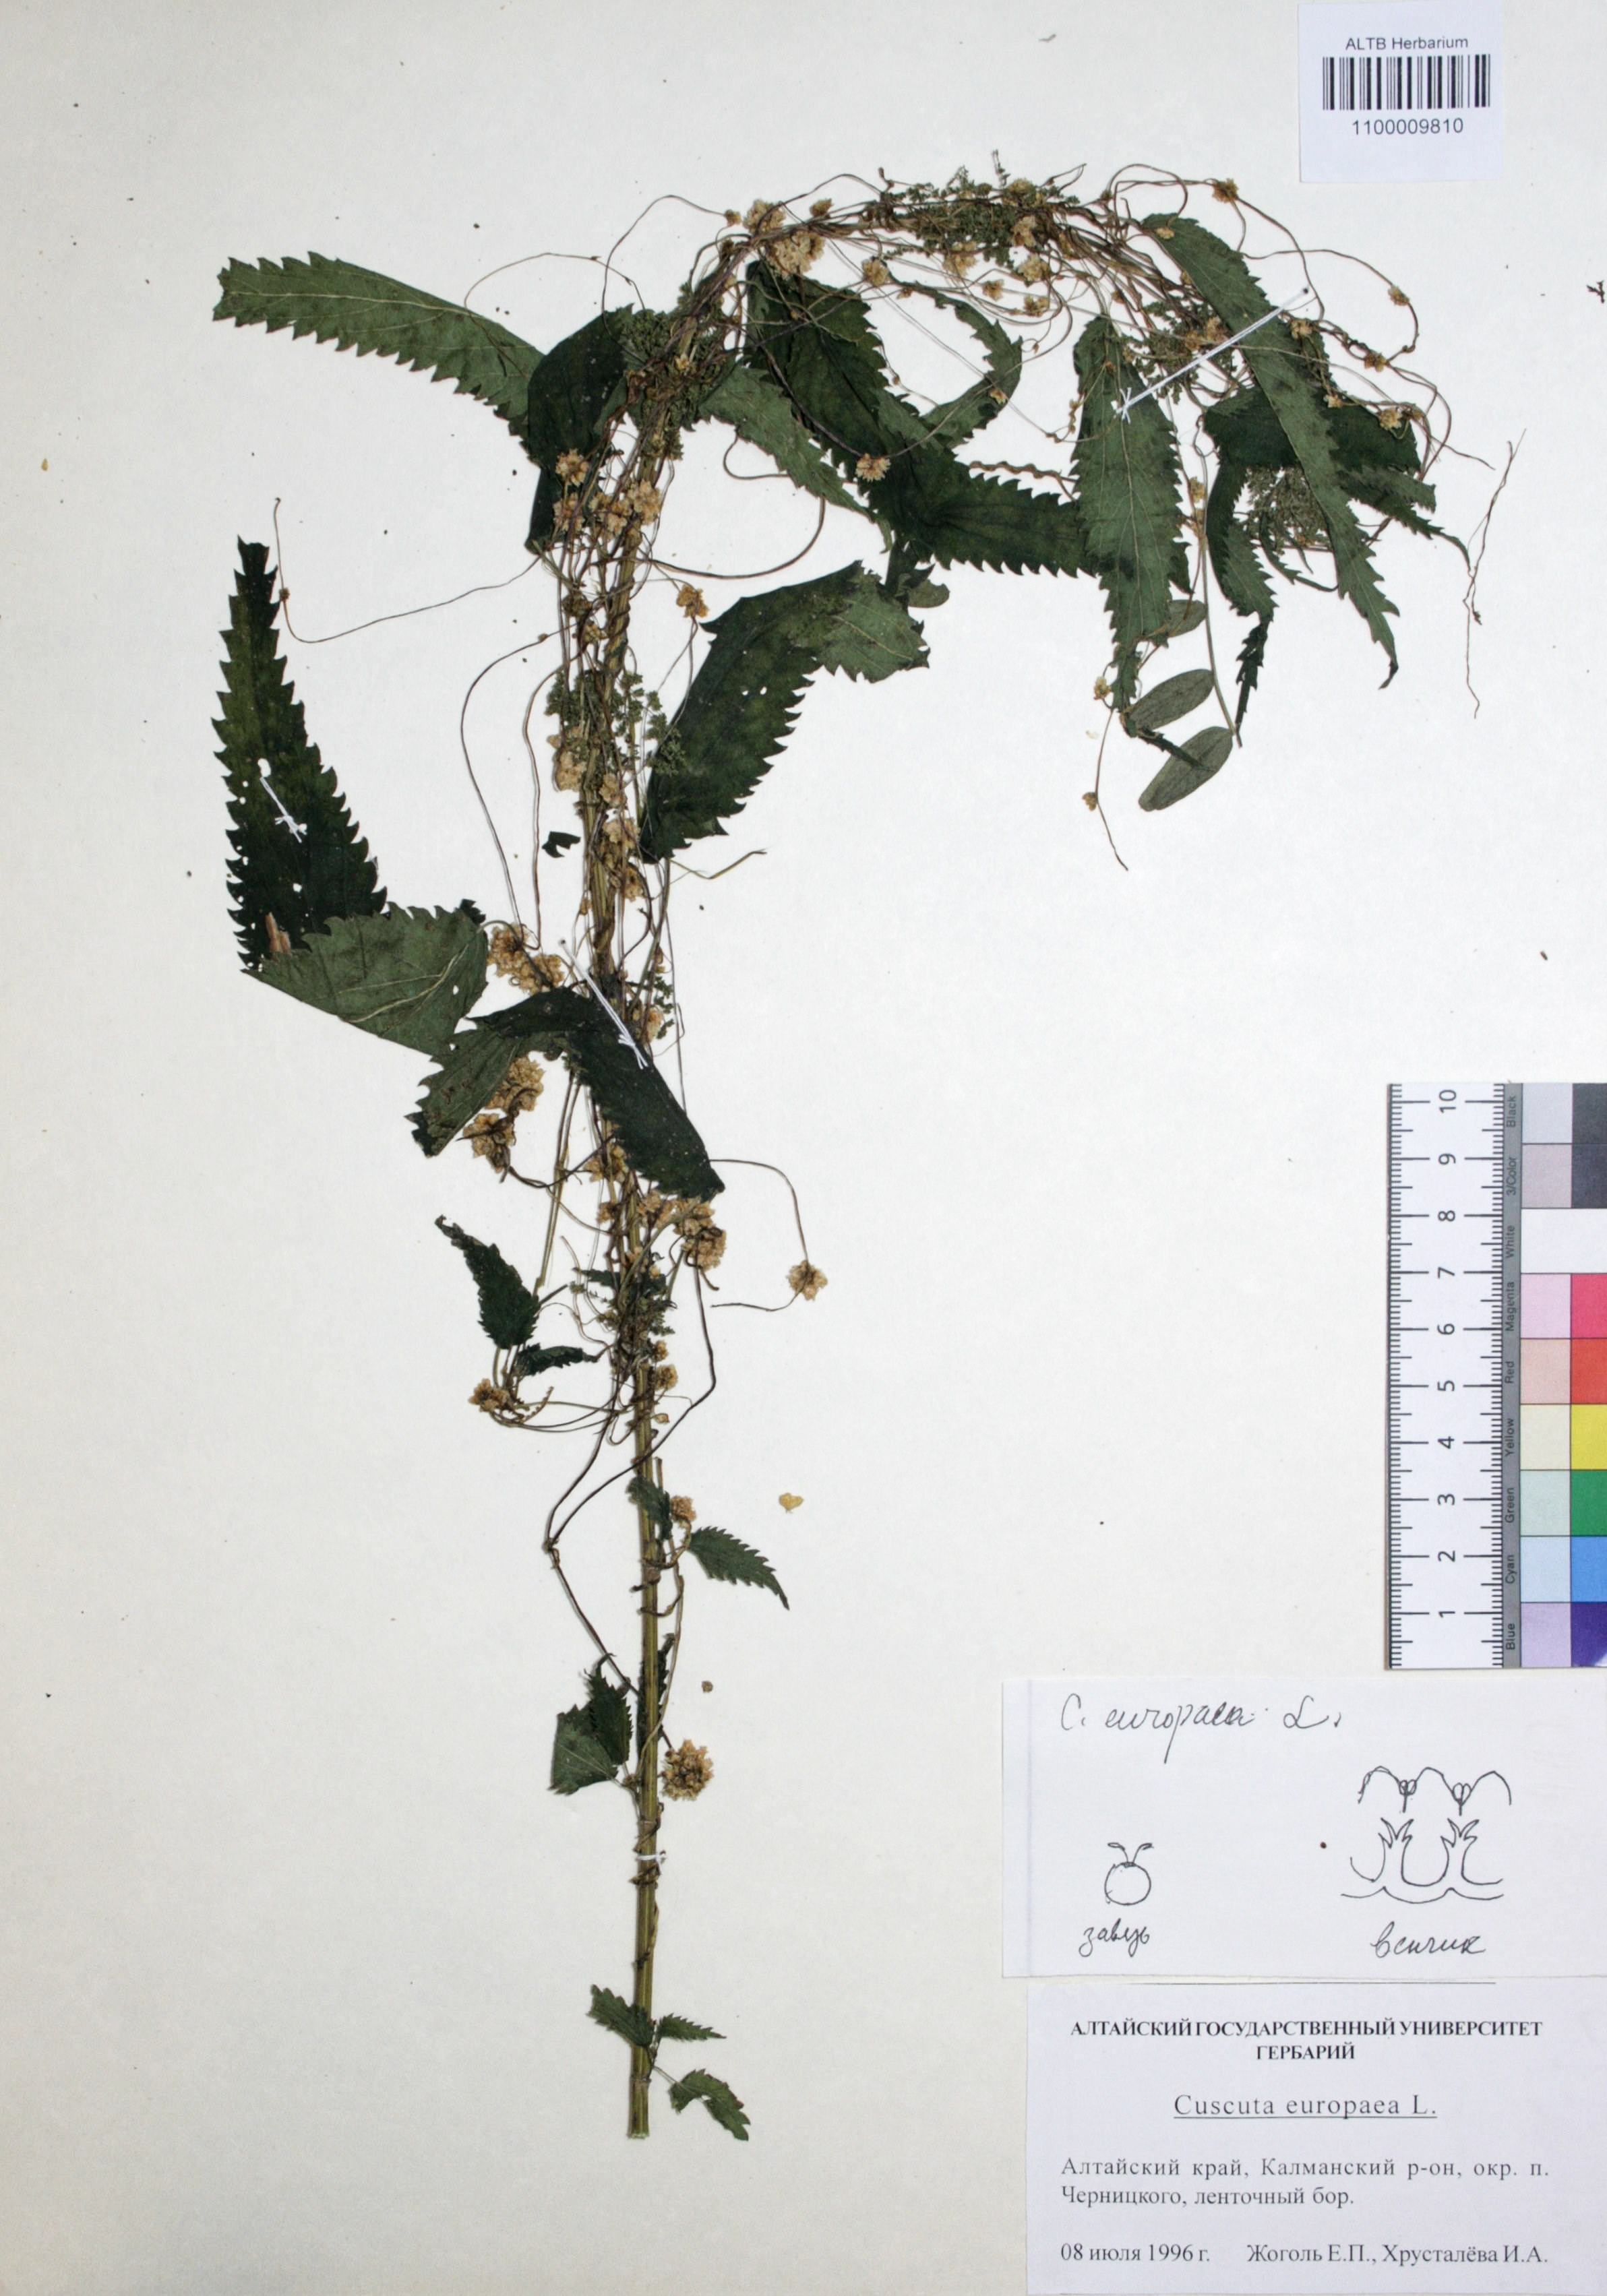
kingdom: Plantae
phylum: Tracheophyta
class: Magnoliopsida
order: Solanales
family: Convolvulaceae
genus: Cuscuta
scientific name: Cuscuta europaea
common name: Greater dodder
